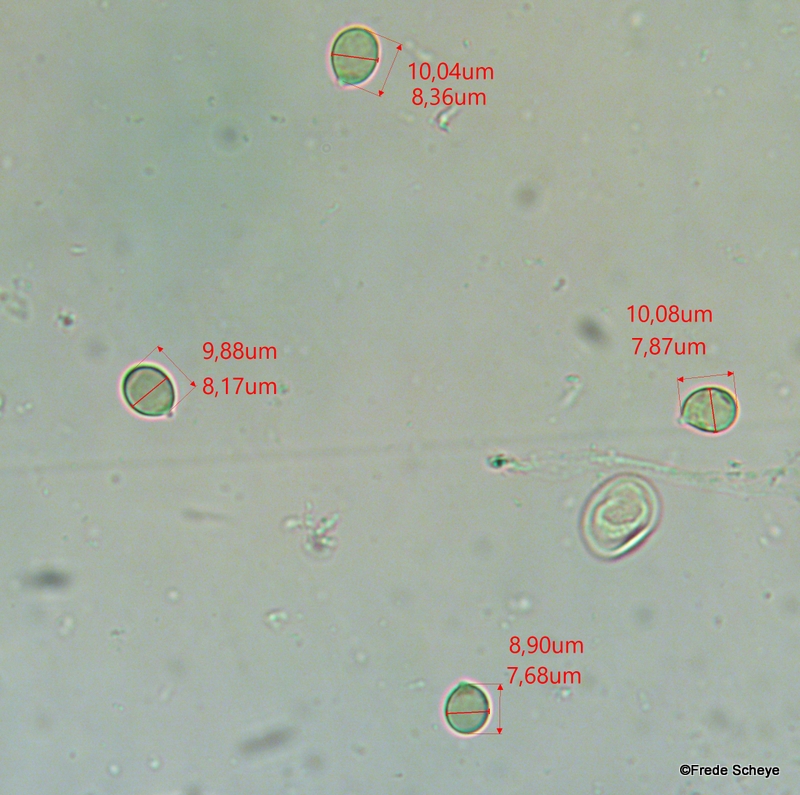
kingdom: Fungi
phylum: Basidiomycota
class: Agaricomycetes
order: Agaricales
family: Amanitaceae
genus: Amanita
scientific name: Amanita gemmata
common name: okkergul fluesvamp
